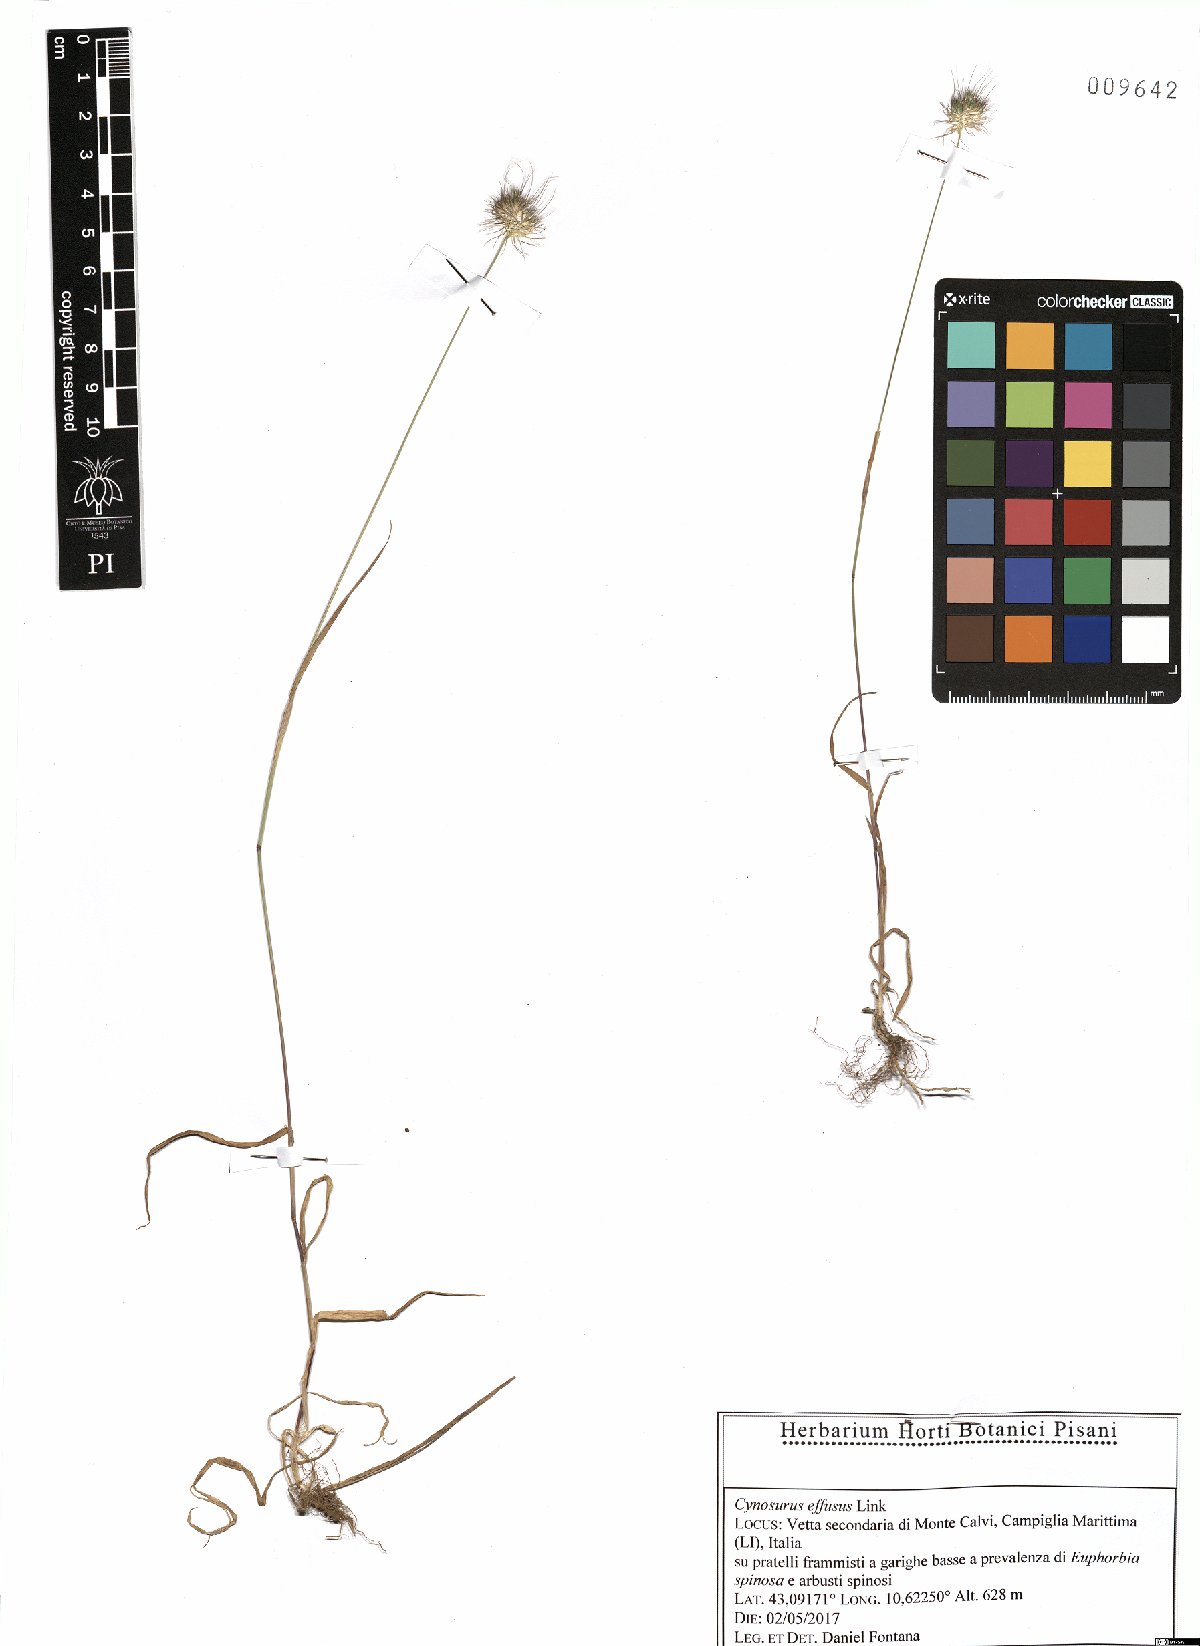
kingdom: Plantae
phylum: Tracheophyta
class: Liliopsida
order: Poales
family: Poaceae
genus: Cynosurus
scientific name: Cynosurus effusus
